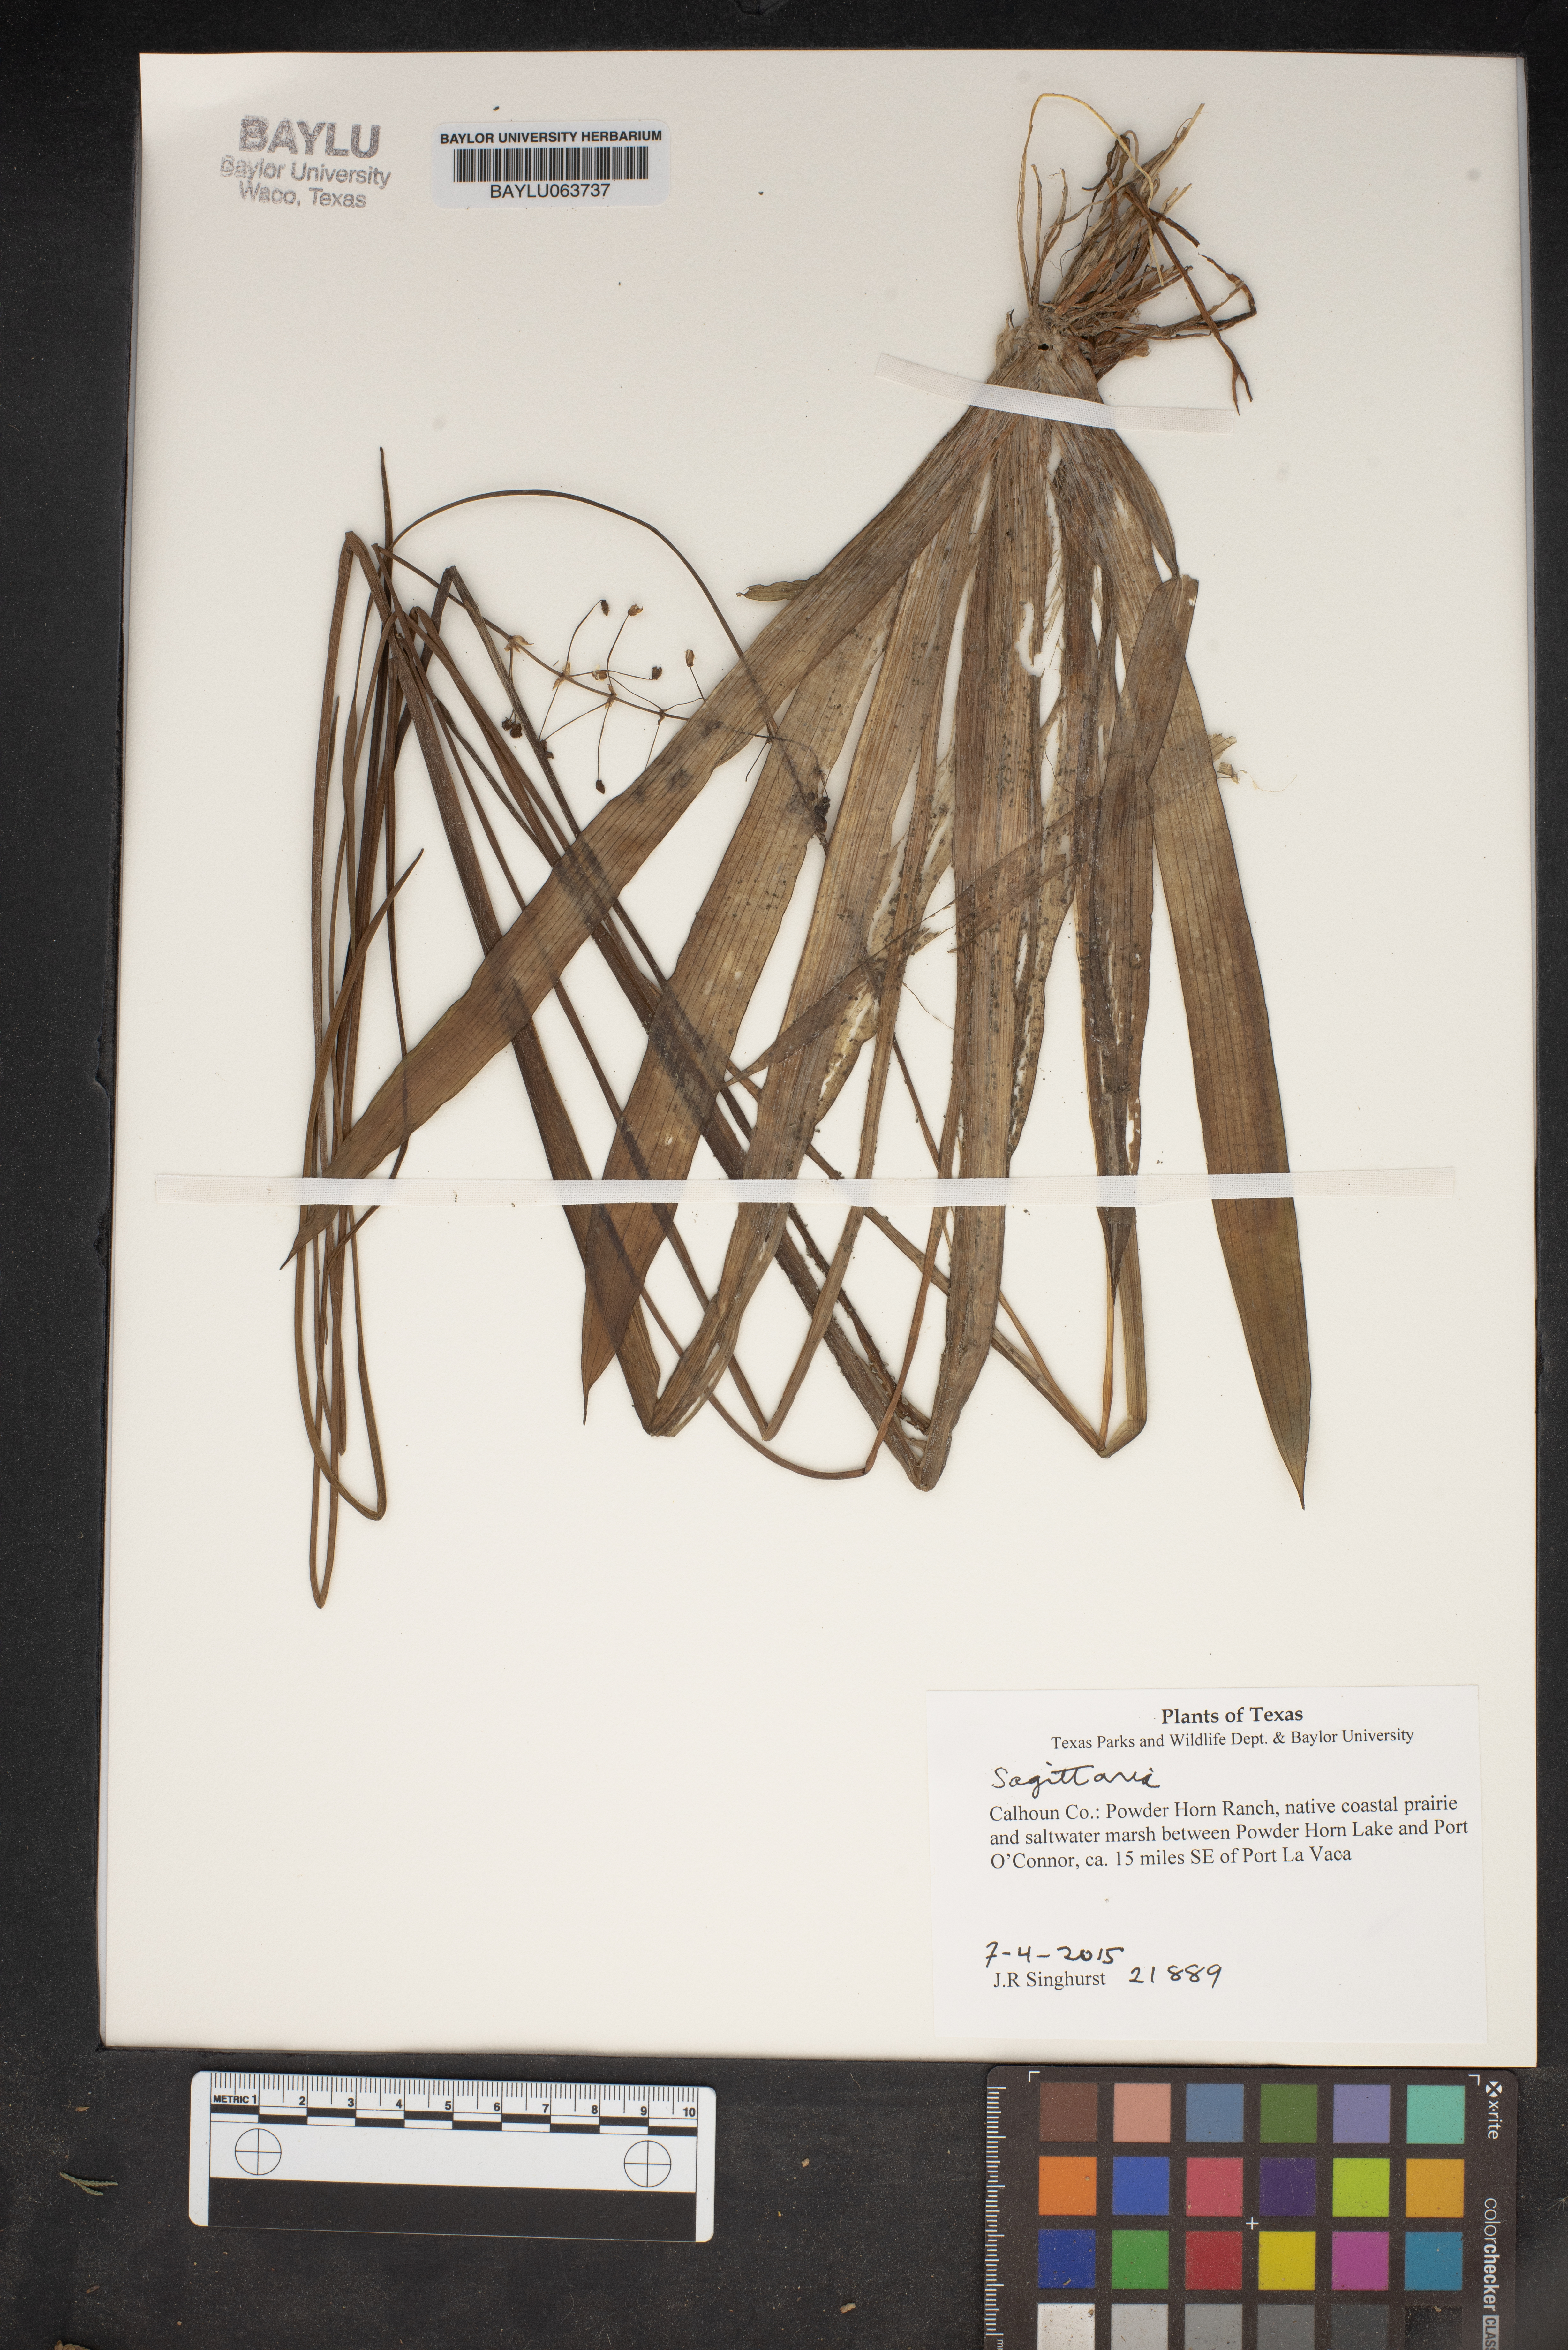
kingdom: Plantae
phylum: Tracheophyta
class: Liliopsida
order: Alismatales
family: Alismataceae
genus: Sagittaria
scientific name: Sagittaria
